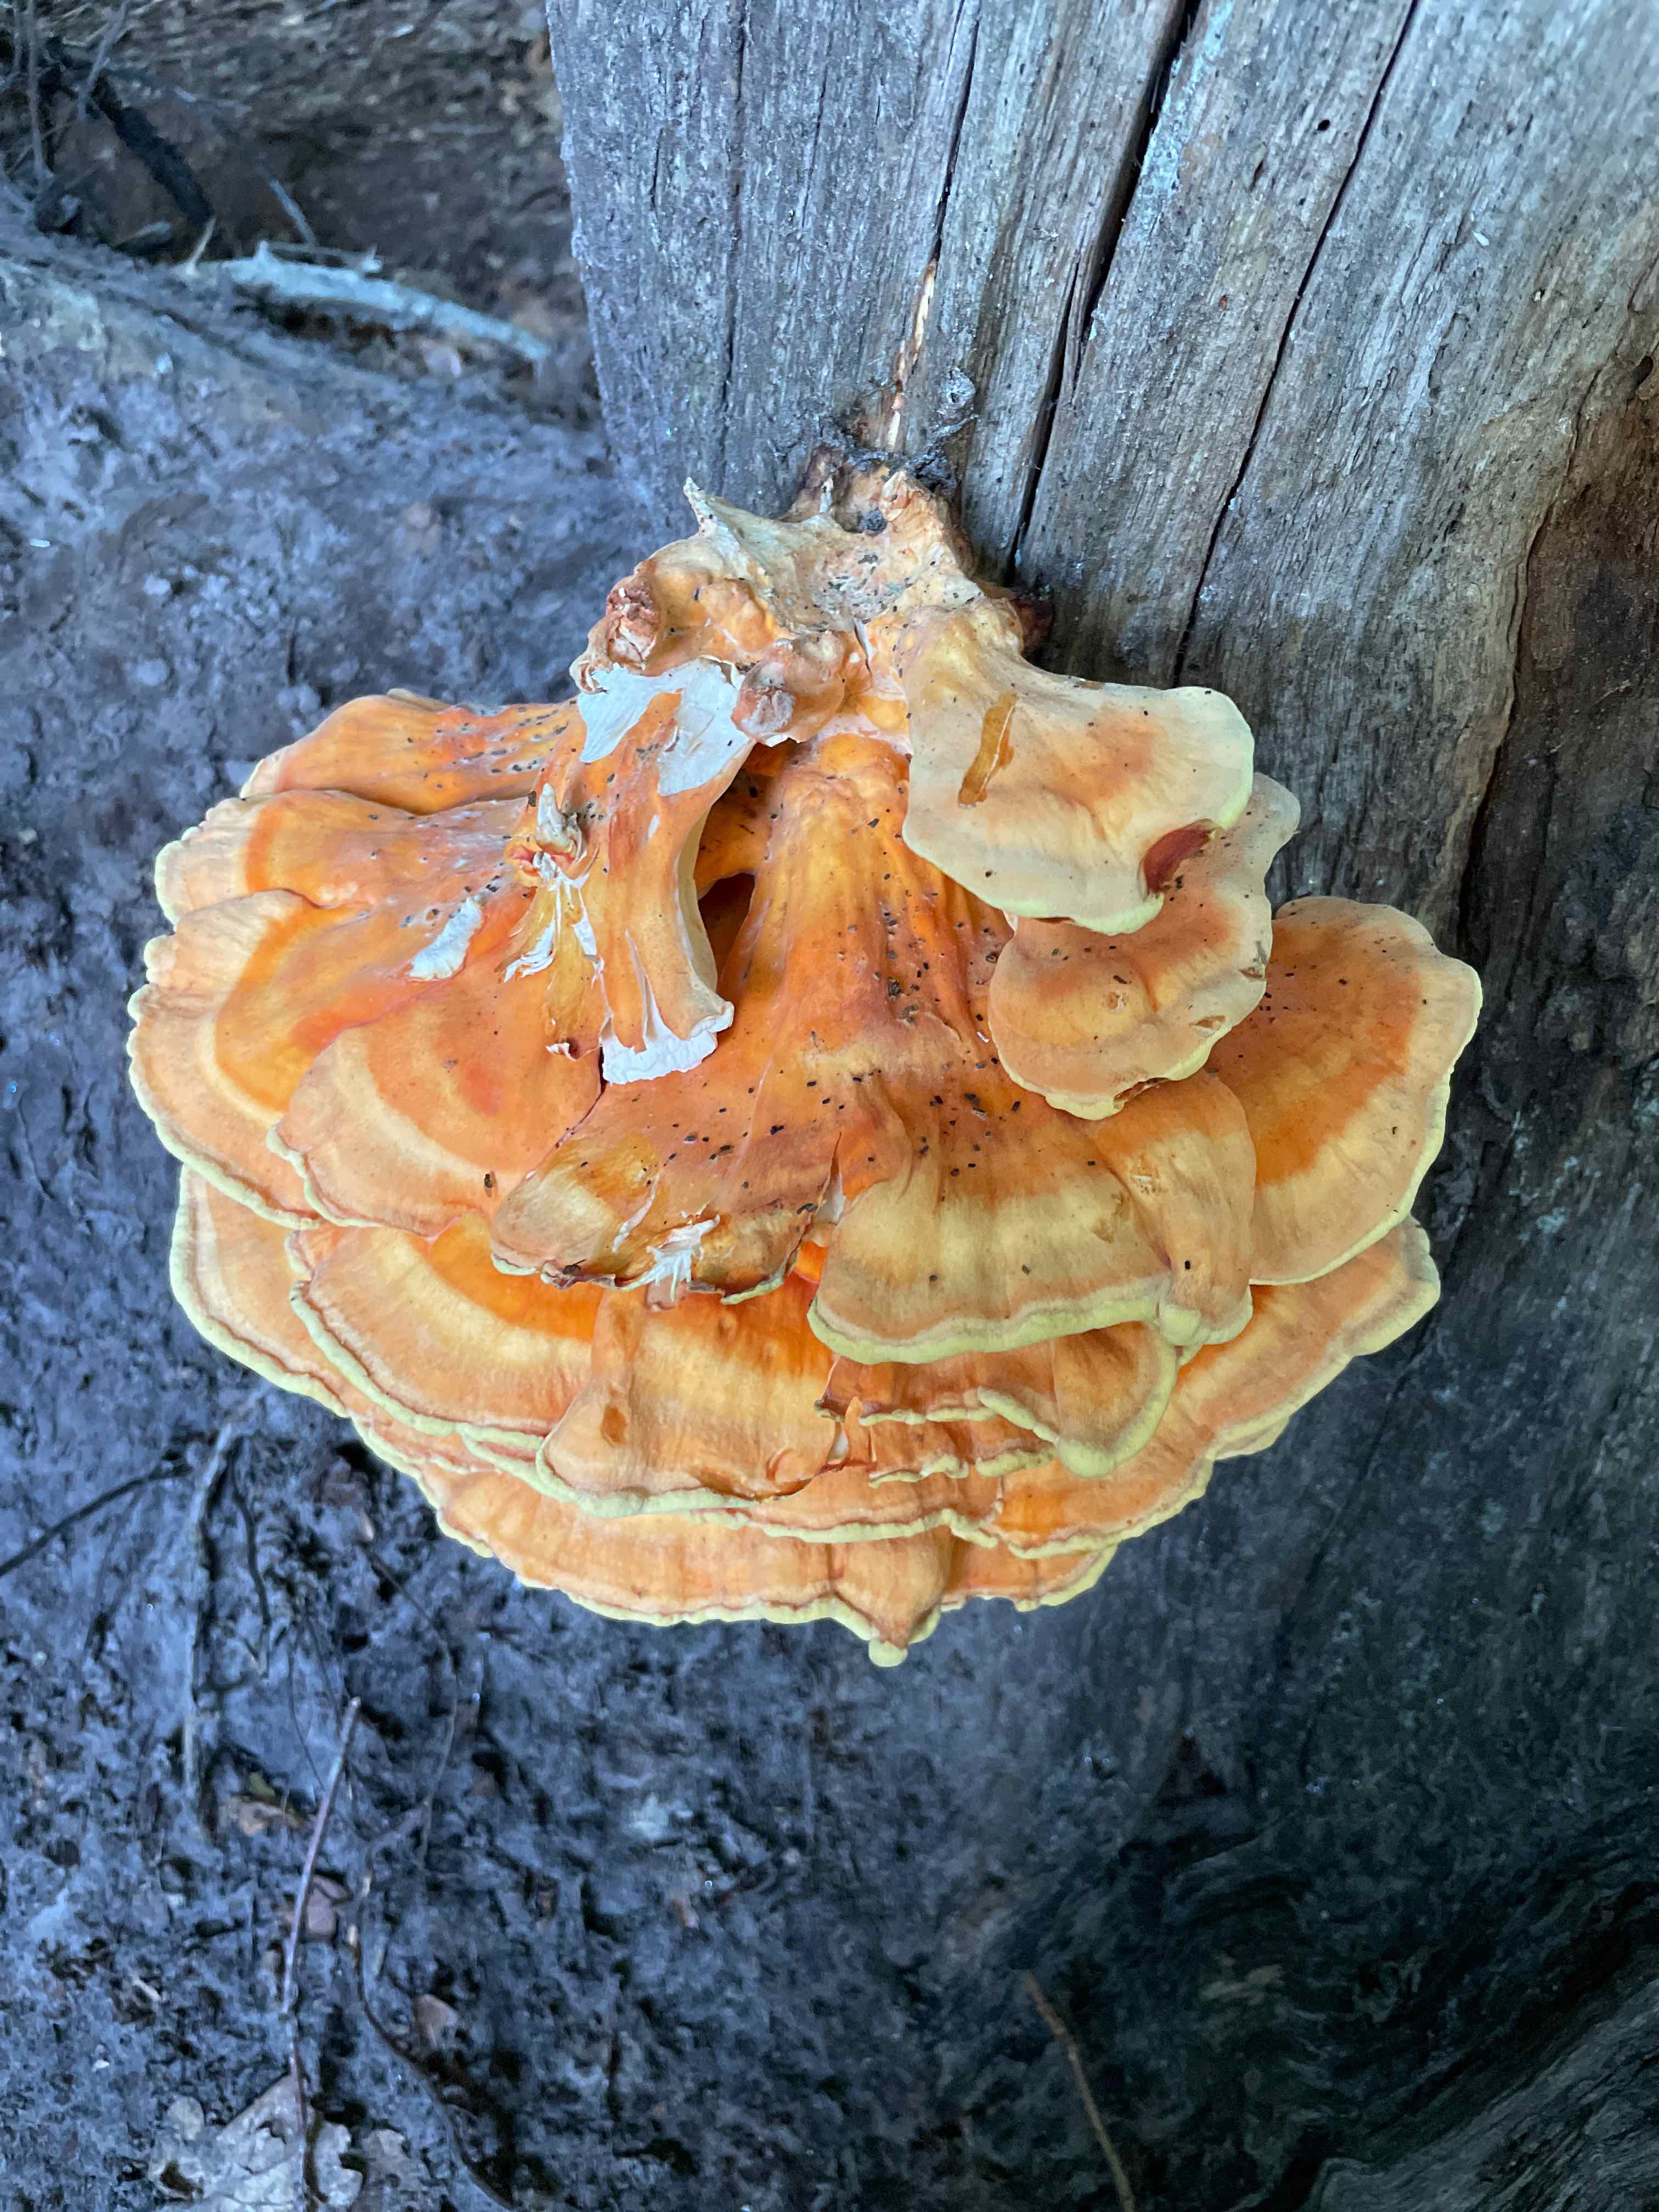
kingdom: Fungi
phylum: Basidiomycota
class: Agaricomycetes
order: Polyporales
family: Laetiporaceae
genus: Laetiporus
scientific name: Laetiporus sulphureus
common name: svovlporesvamp
